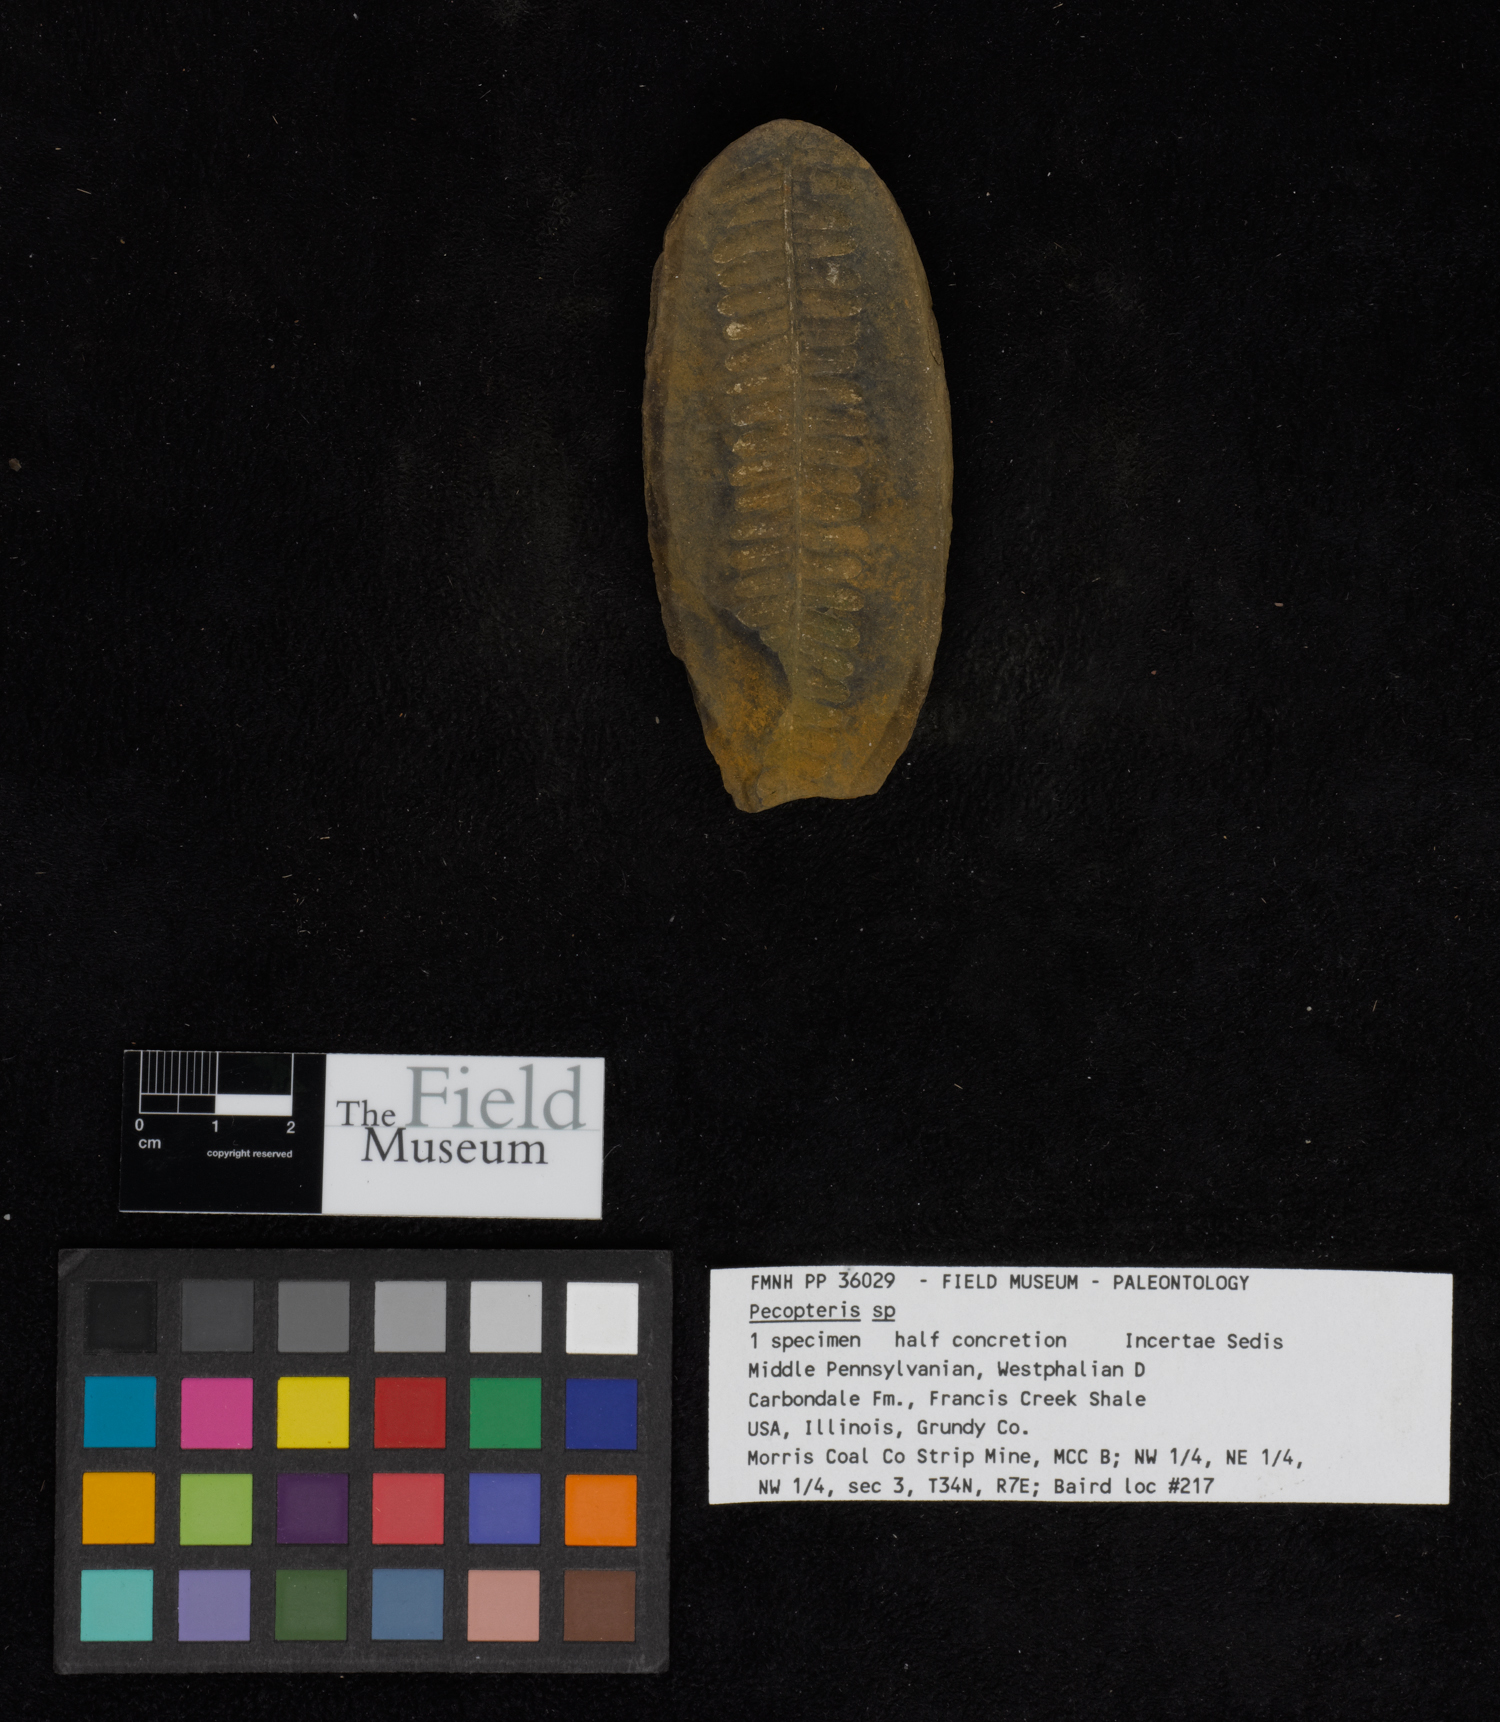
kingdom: Plantae
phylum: Tracheophyta
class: Polypodiopsida
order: Marattiales
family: Asterothecaceae
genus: Pecopteris
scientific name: Pecopteris
